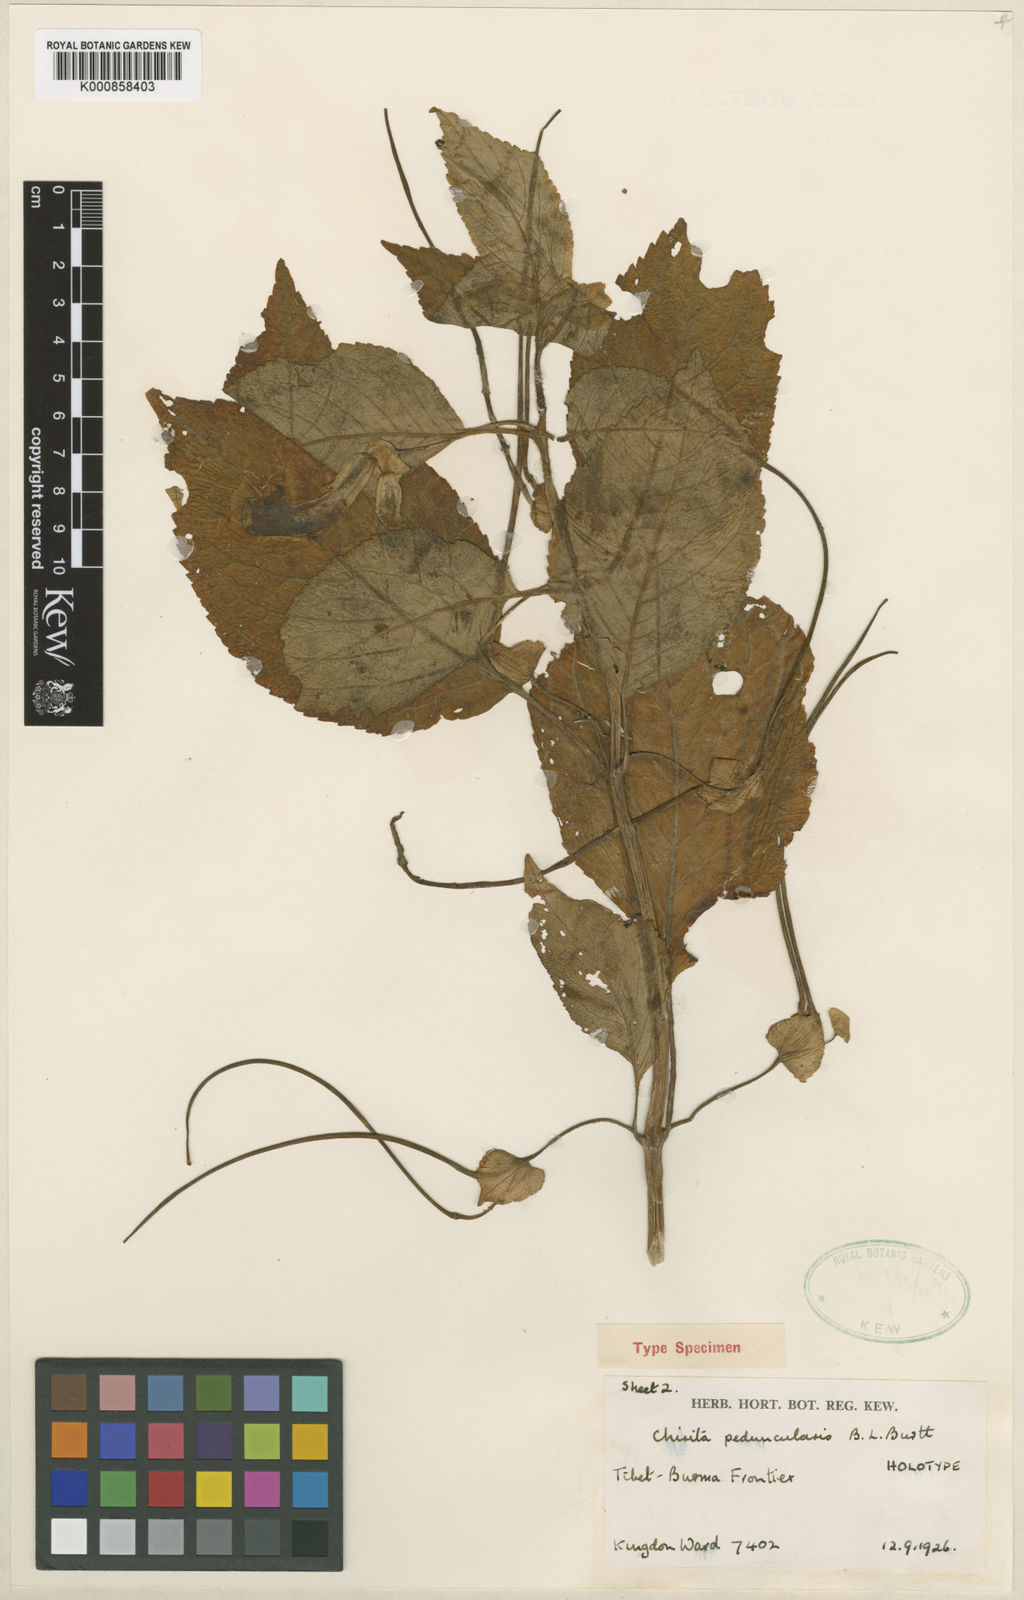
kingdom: Plantae
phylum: Tracheophyta
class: Magnoliopsida
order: Lamiales
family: Gesneriaceae
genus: Henckelia
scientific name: Henckelia peduncularis
